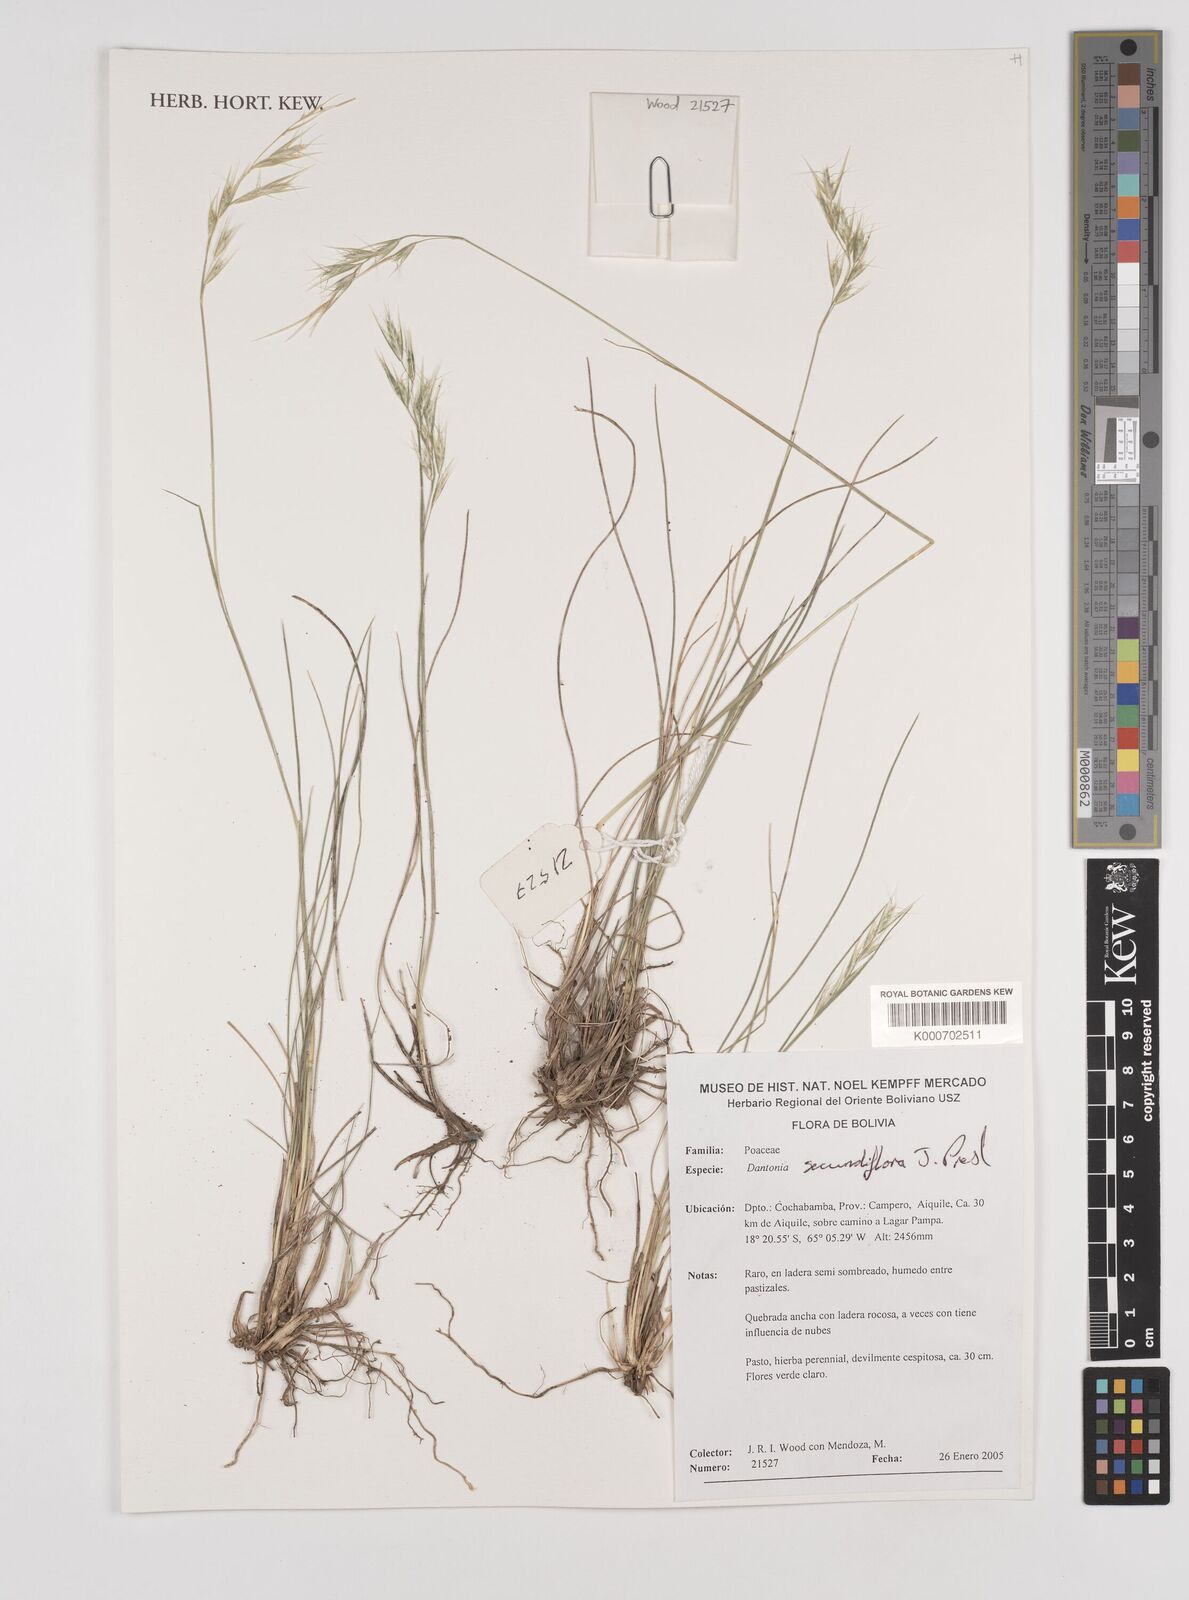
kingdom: Plantae
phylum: Tracheophyta
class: Liliopsida
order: Poales
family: Poaceae
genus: Danthonia
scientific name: Danthonia secundiflora
